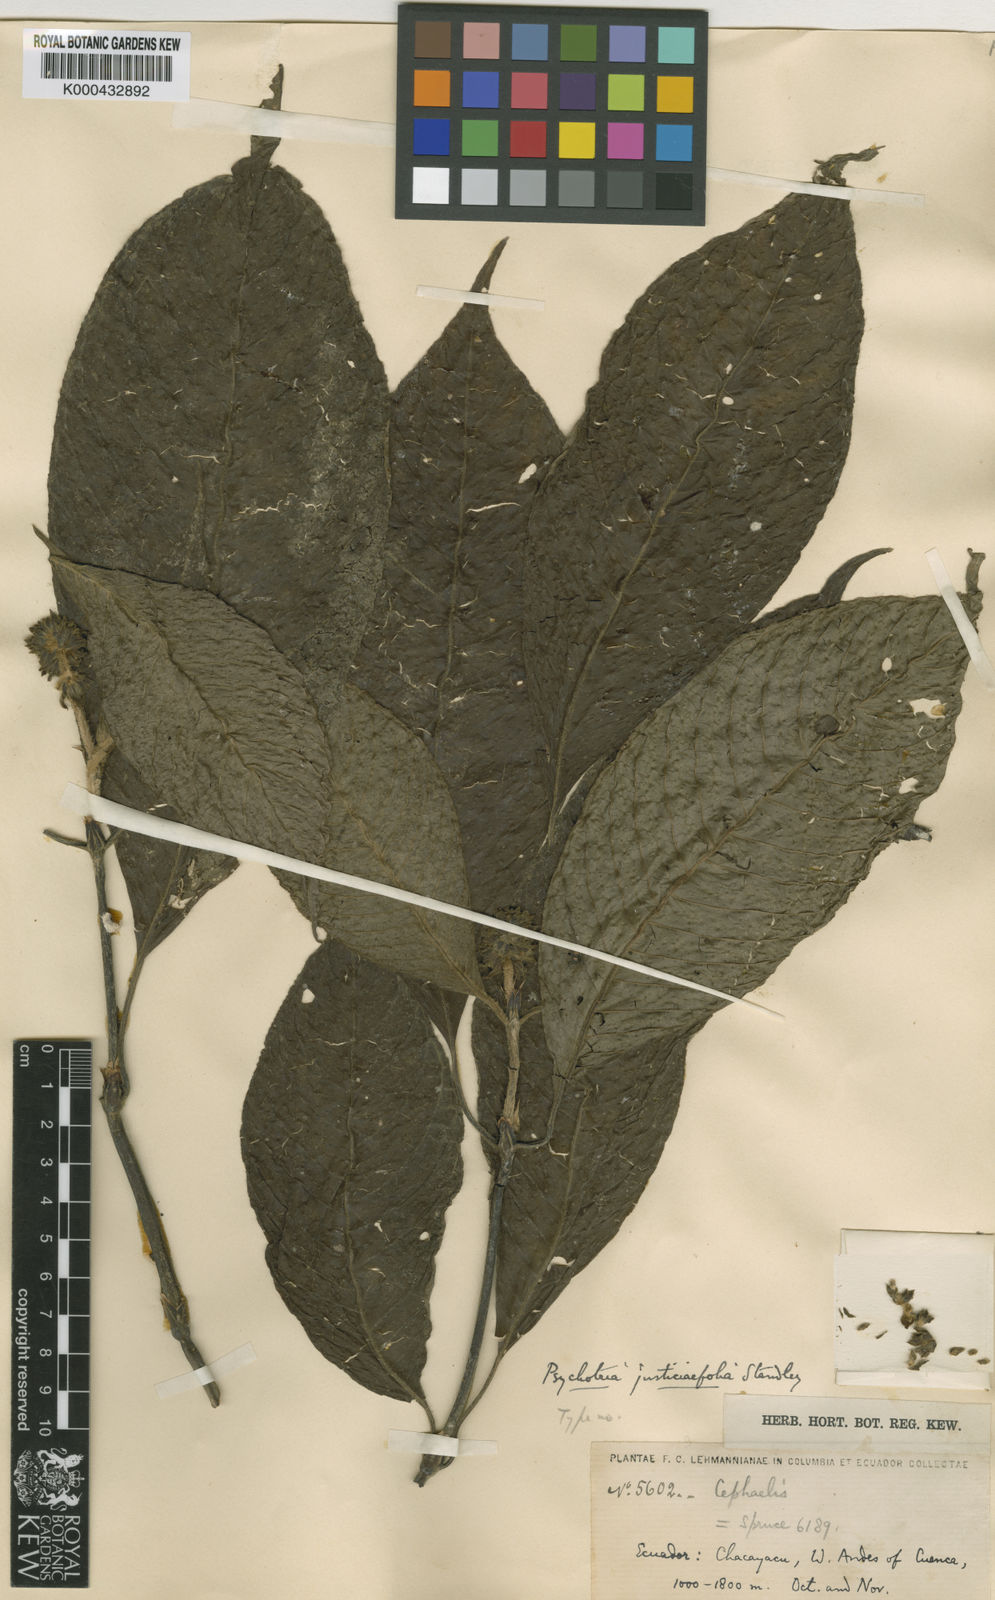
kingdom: Plantae
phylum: Tracheophyta
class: Magnoliopsida
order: Gentianales
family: Rubiaceae
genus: Palicourea
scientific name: Palicourea pilosa
